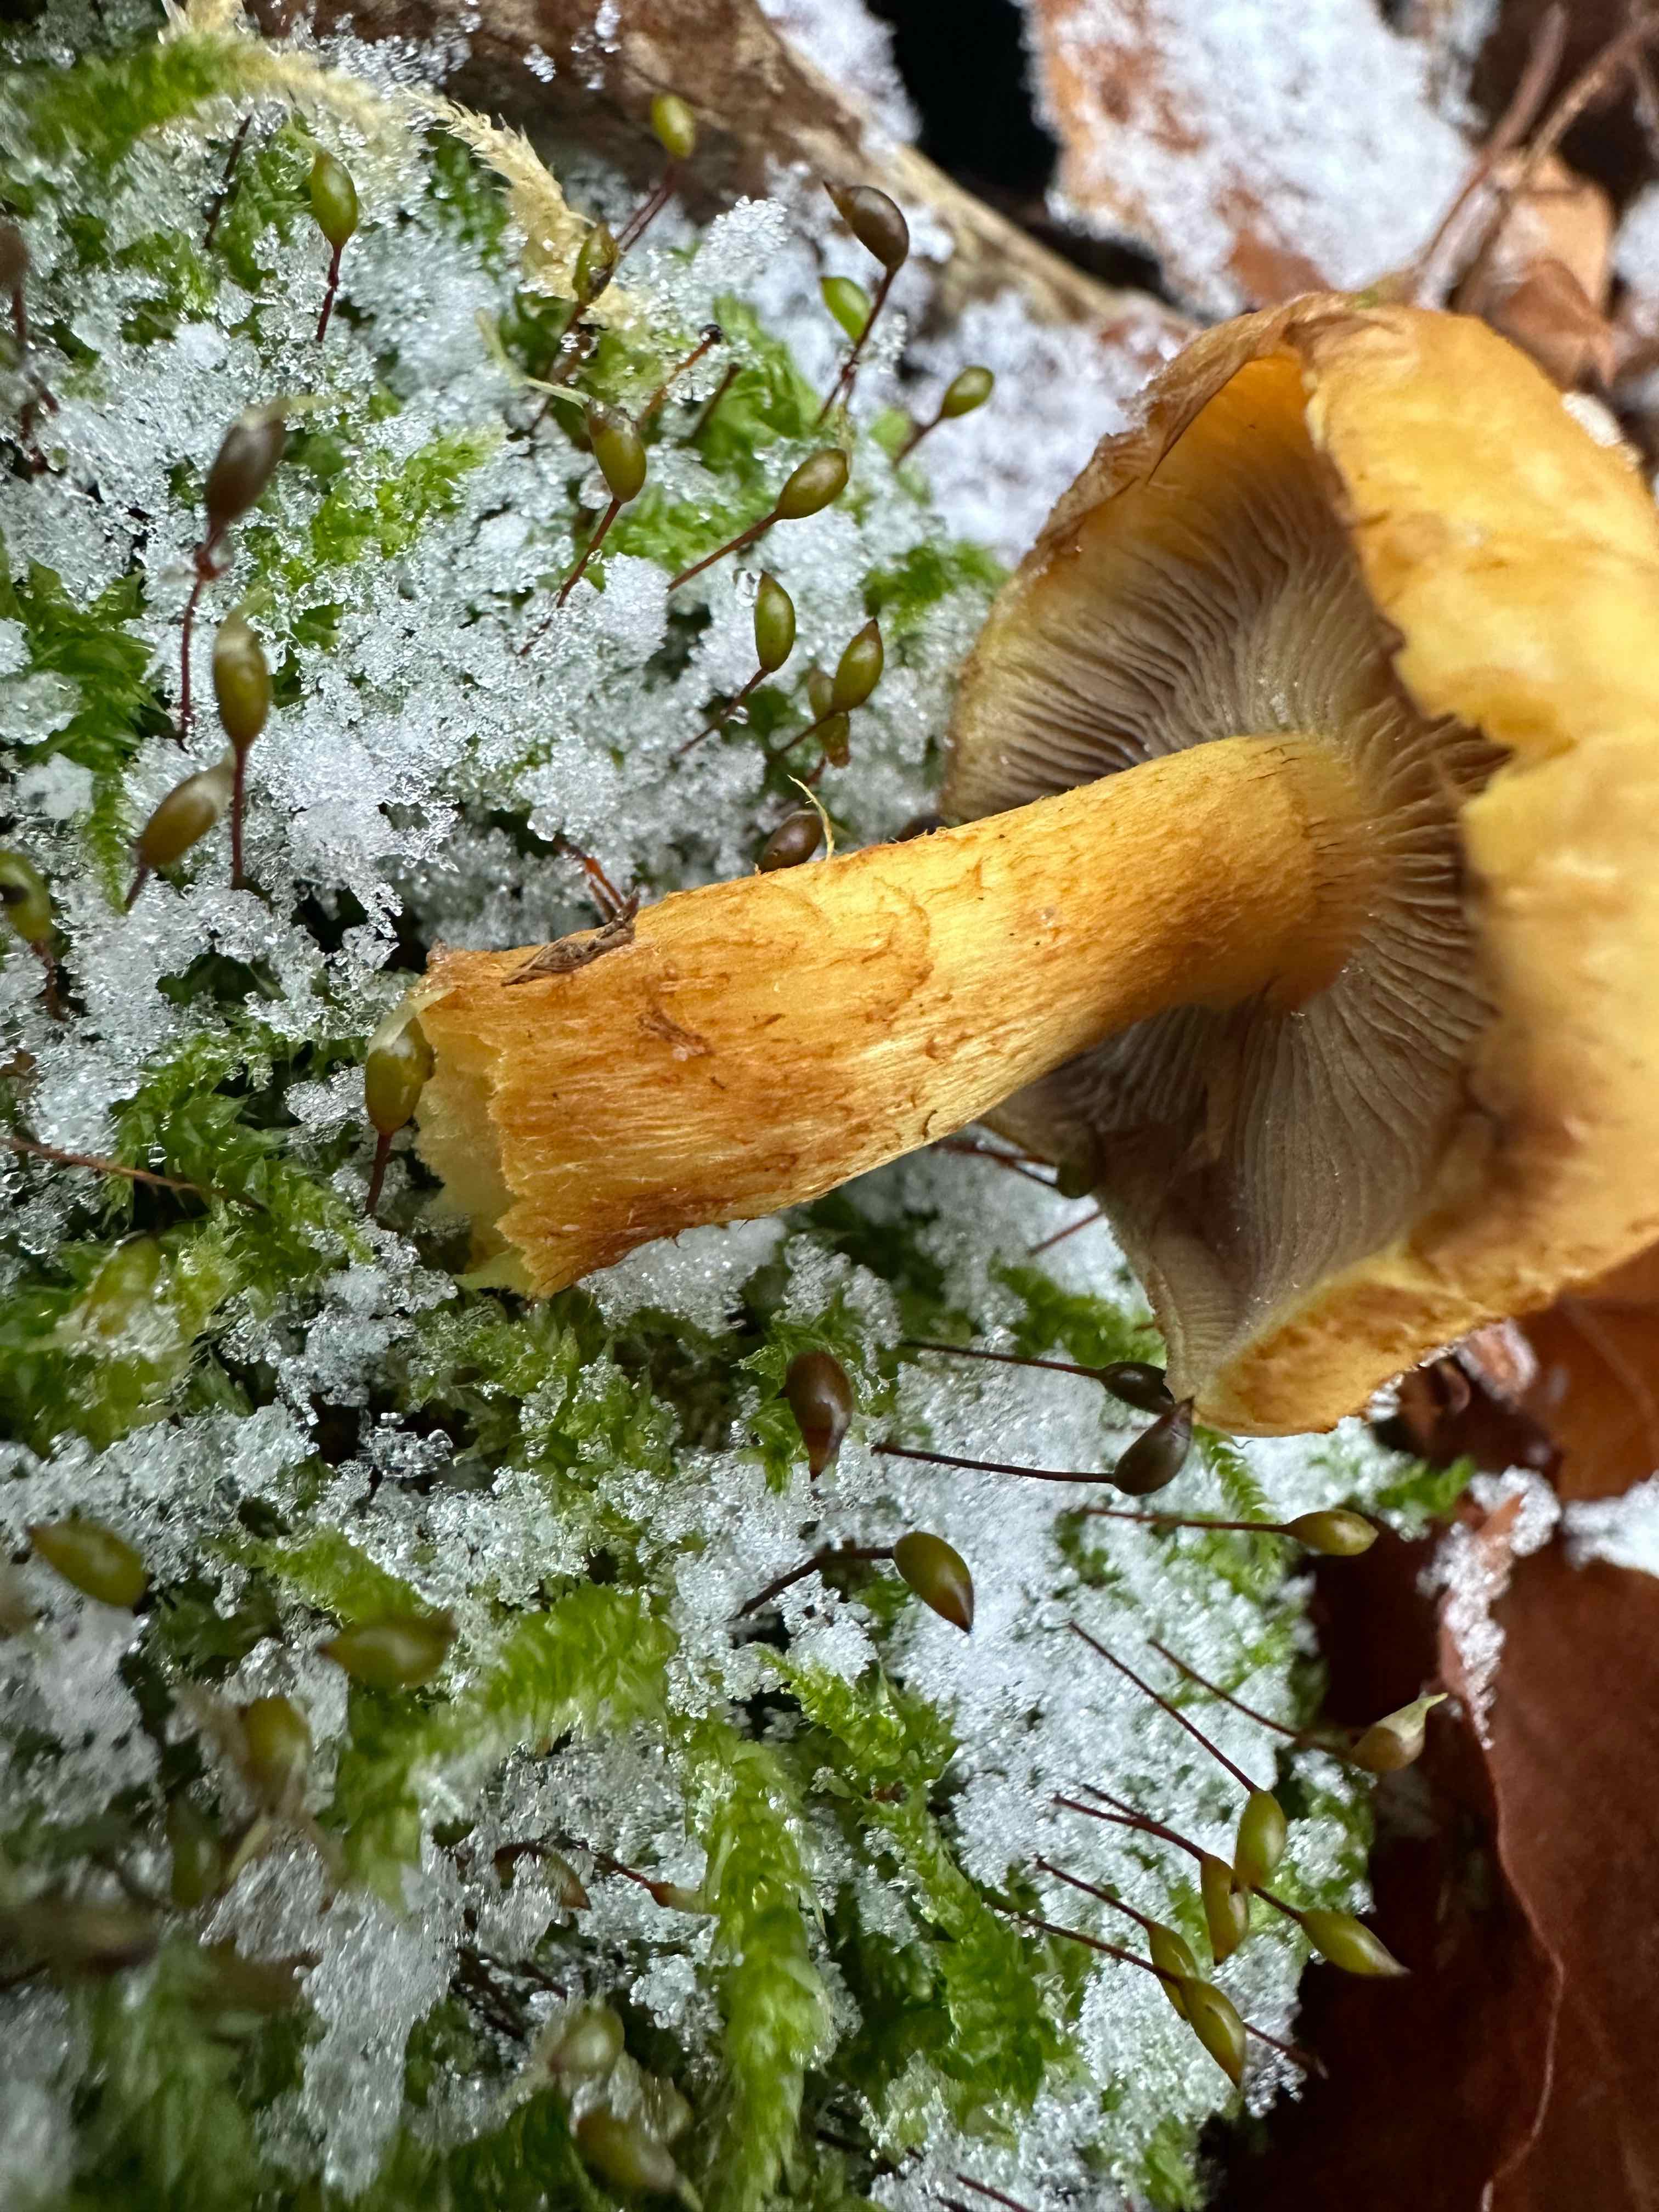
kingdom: Fungi
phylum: Basidiomycota
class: Agaricomycetes
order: Agaricales
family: Strophariaceae
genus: Hypholoma
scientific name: Hypholoma fasciculare
